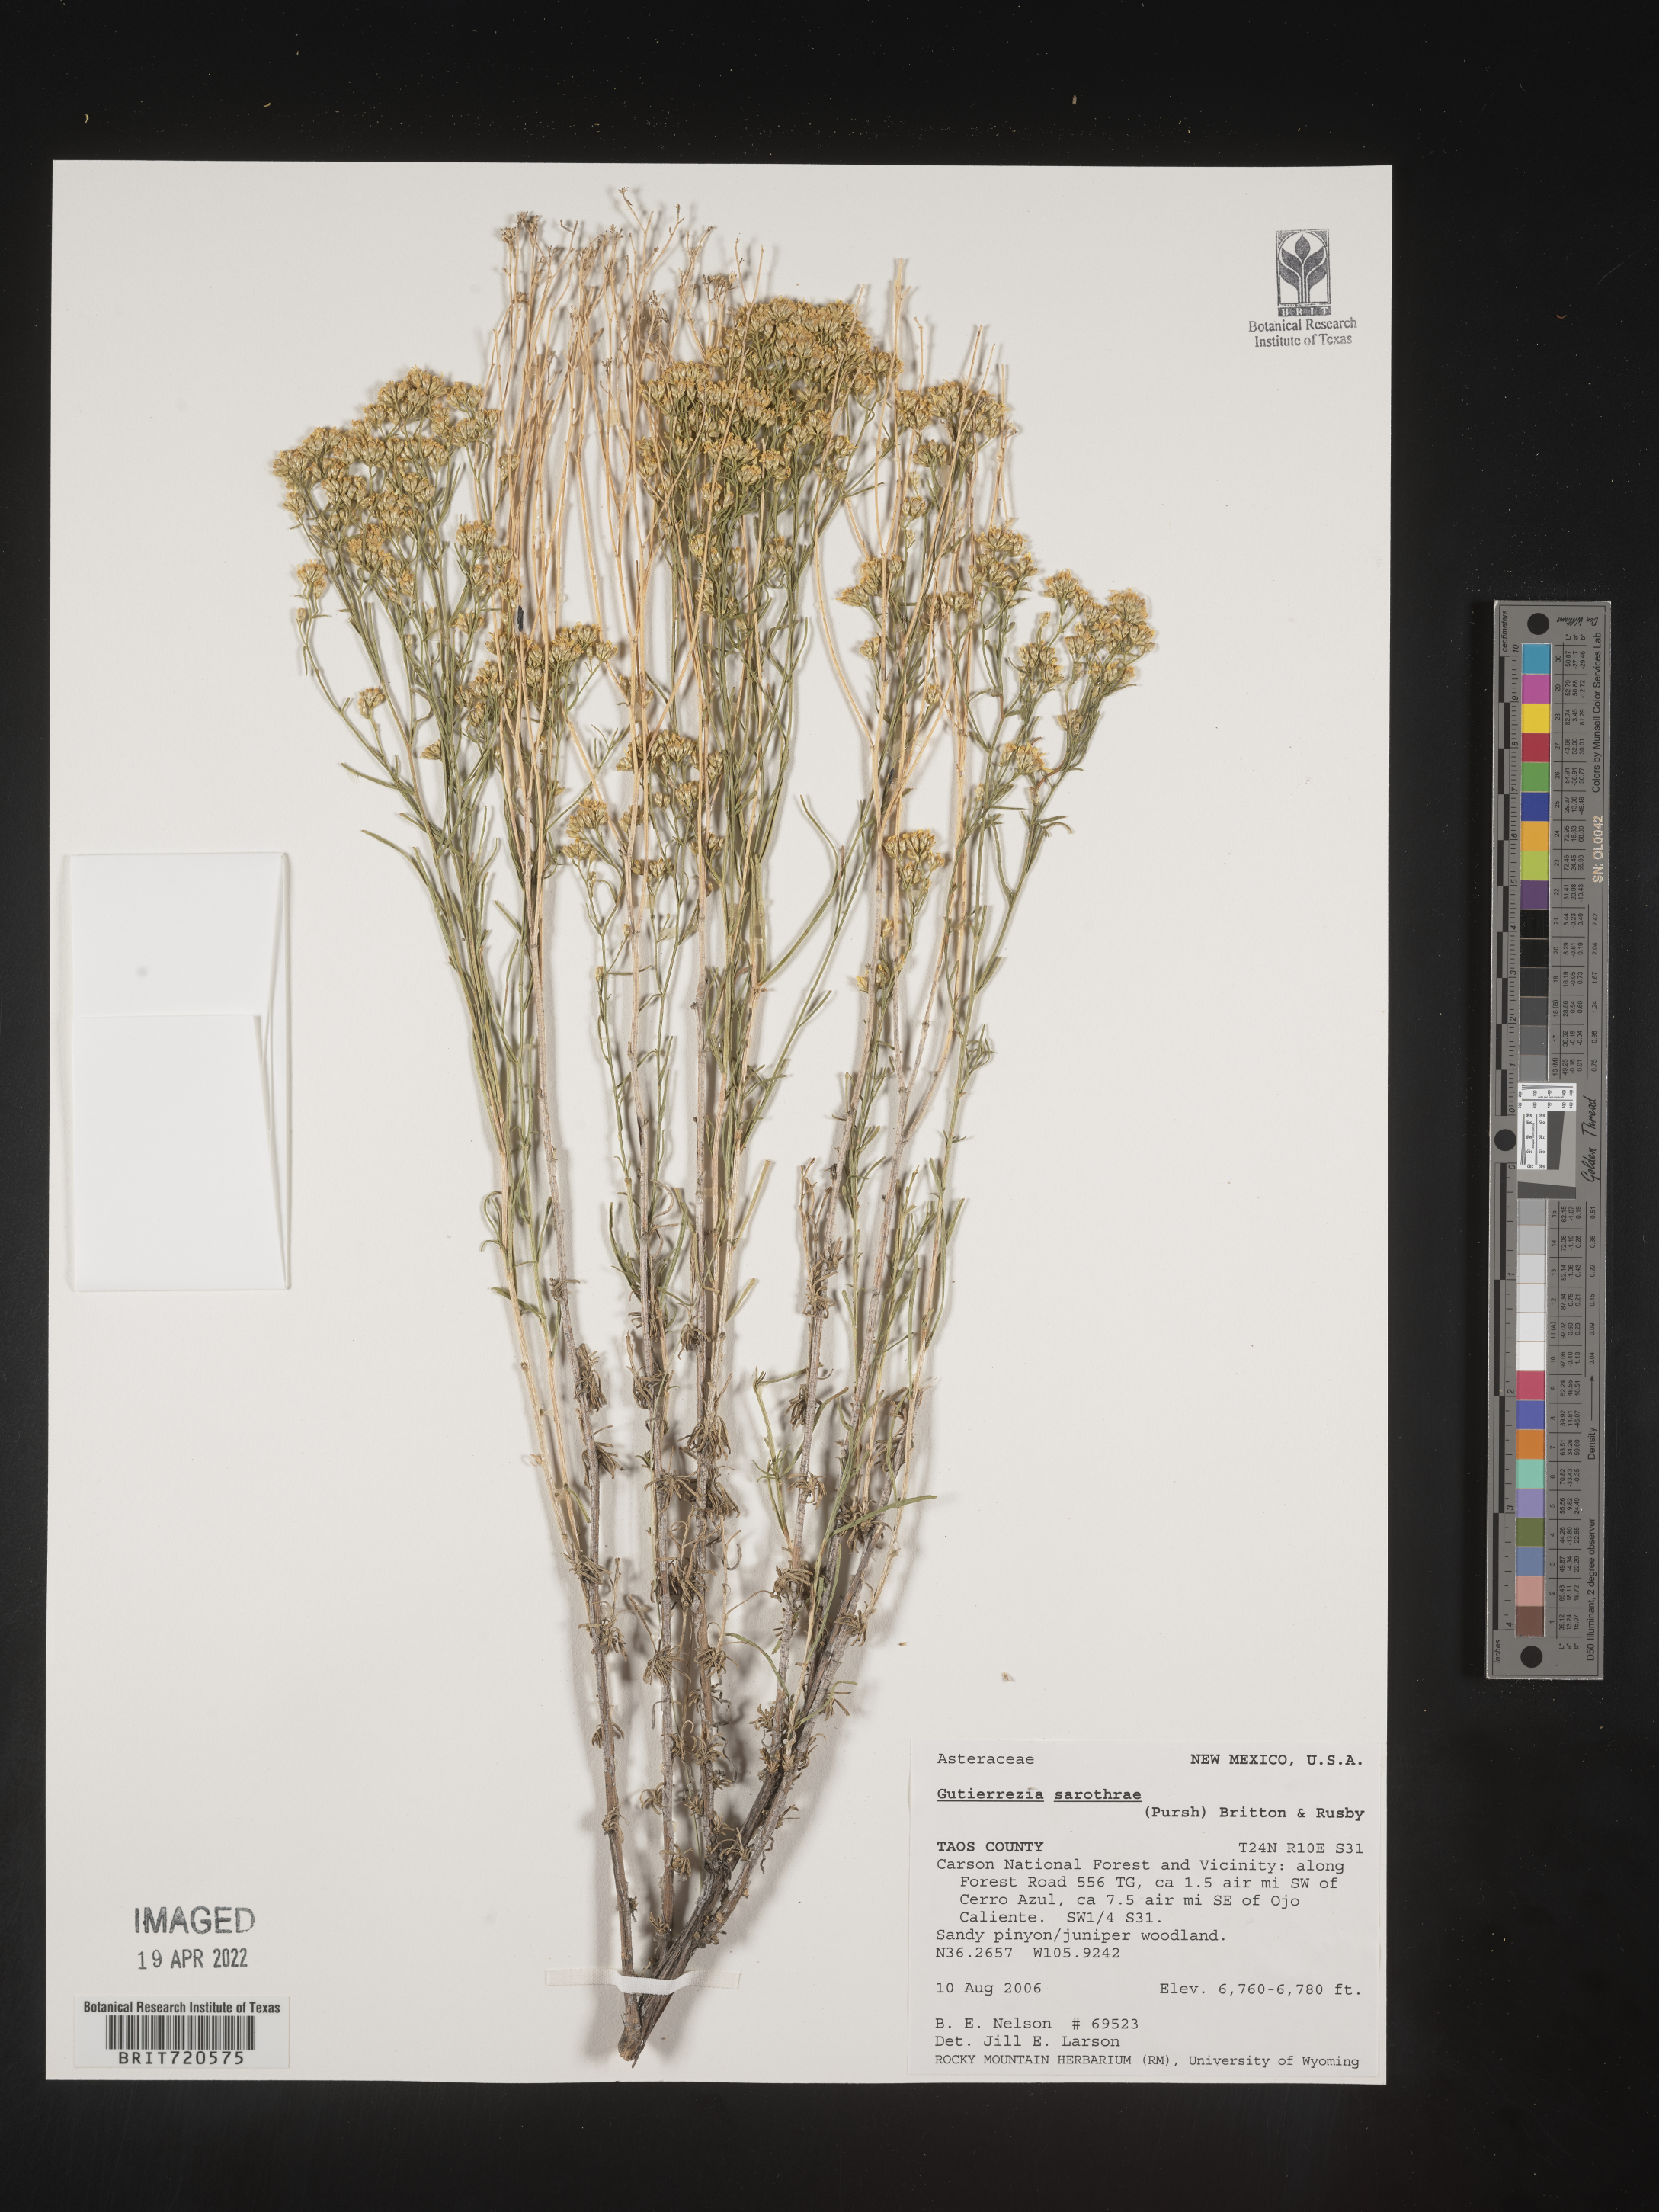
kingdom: Plantae
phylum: Tracheophyta
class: Magnoliopsida
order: Asterales
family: Asteraceae
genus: Gutierrezia
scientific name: Gutierrezia sarothrae
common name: Broom snakeweed
